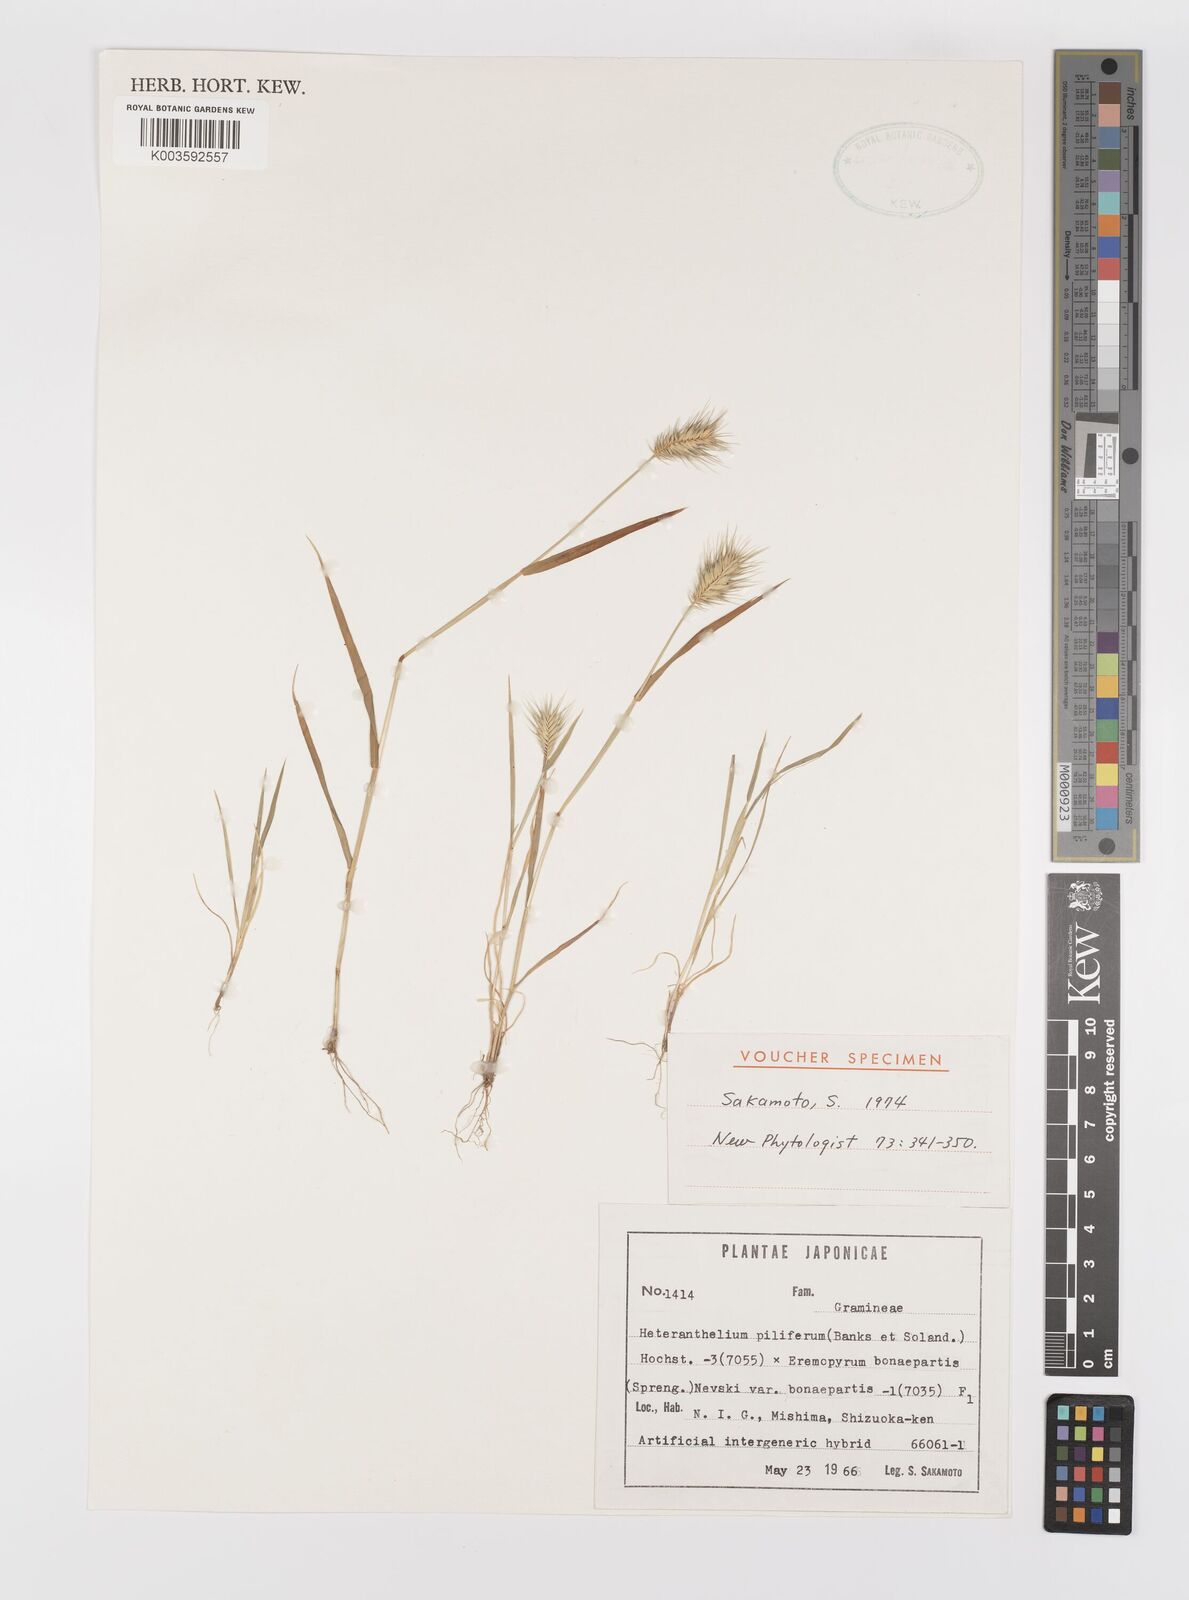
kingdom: Plantae
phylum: Tracheophyta
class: Liliopsida
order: Poales
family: Poaceae
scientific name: Poaceae
